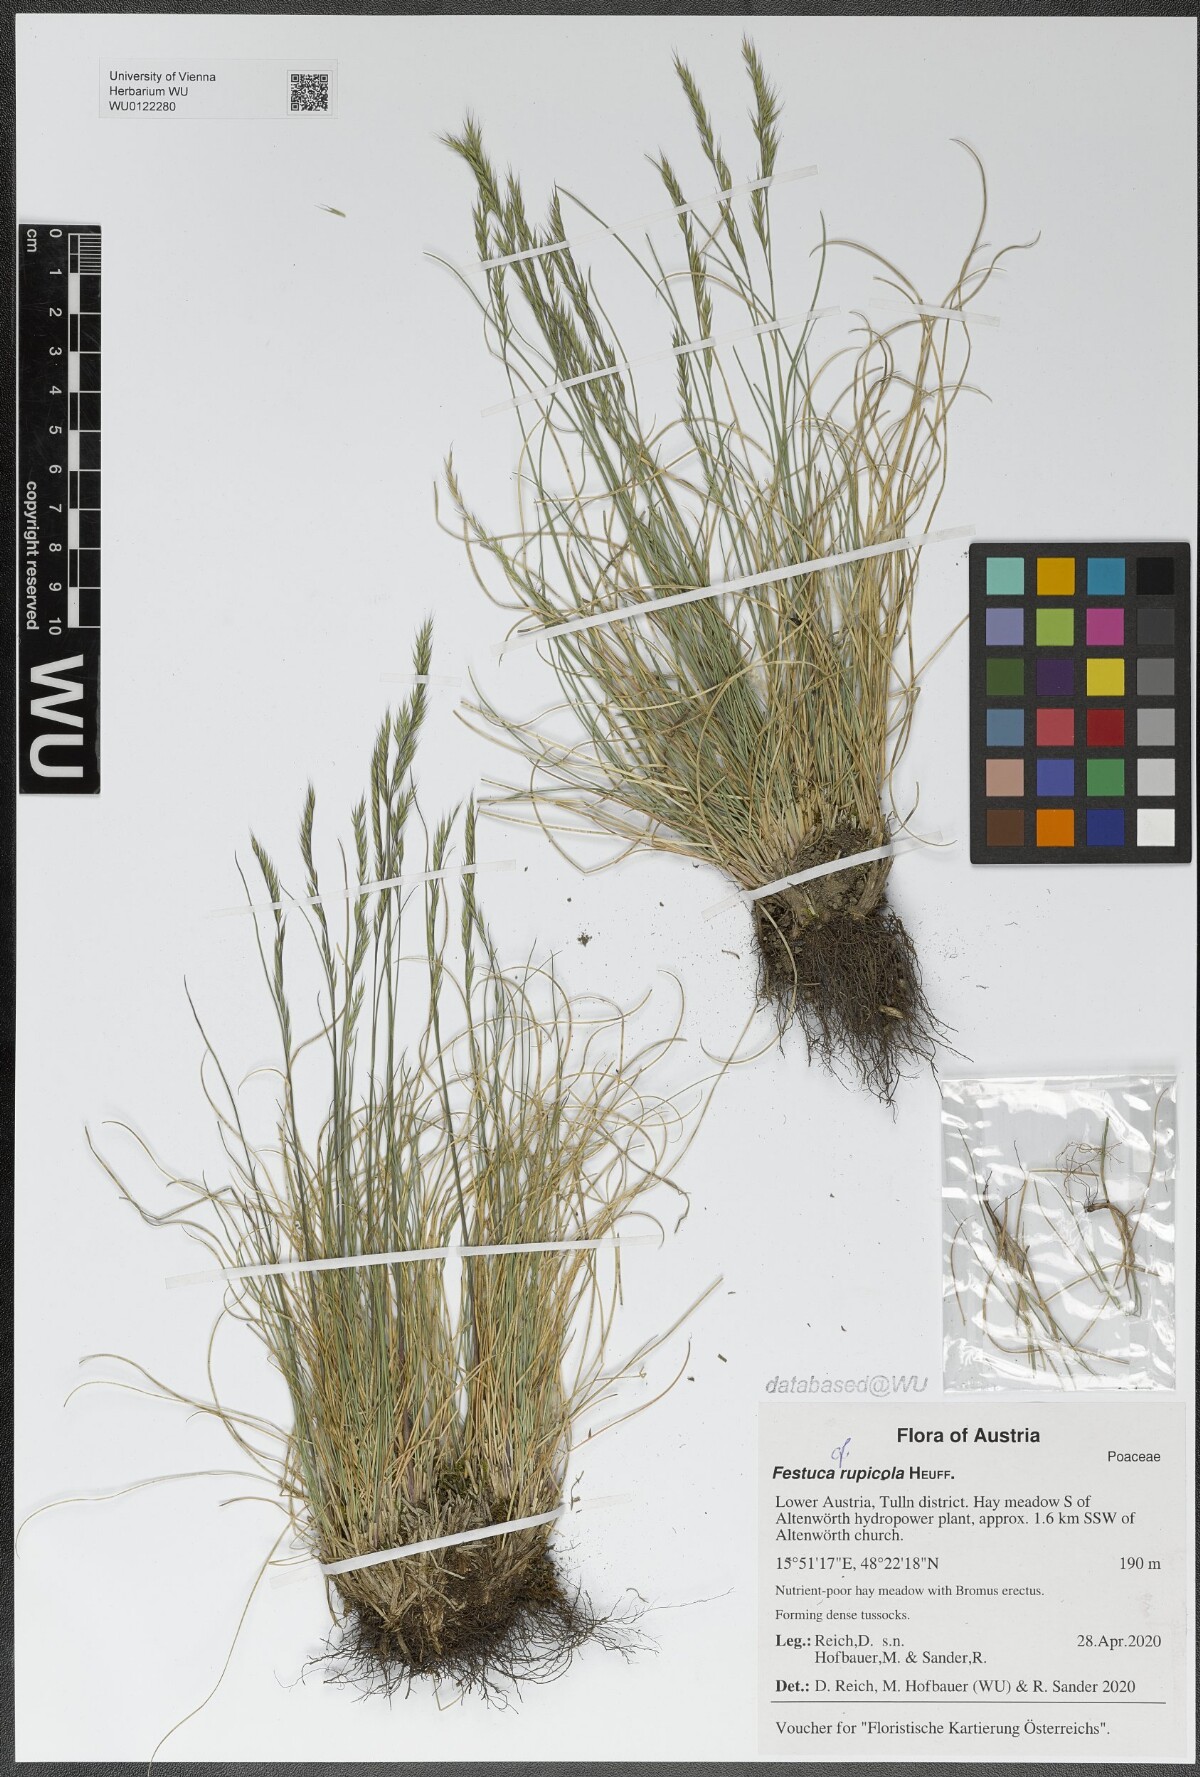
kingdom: Plantae
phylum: Tracheophyta
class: Liliopsida
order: Poales
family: Poaceae
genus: Festuca
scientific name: Festuca rupicola
